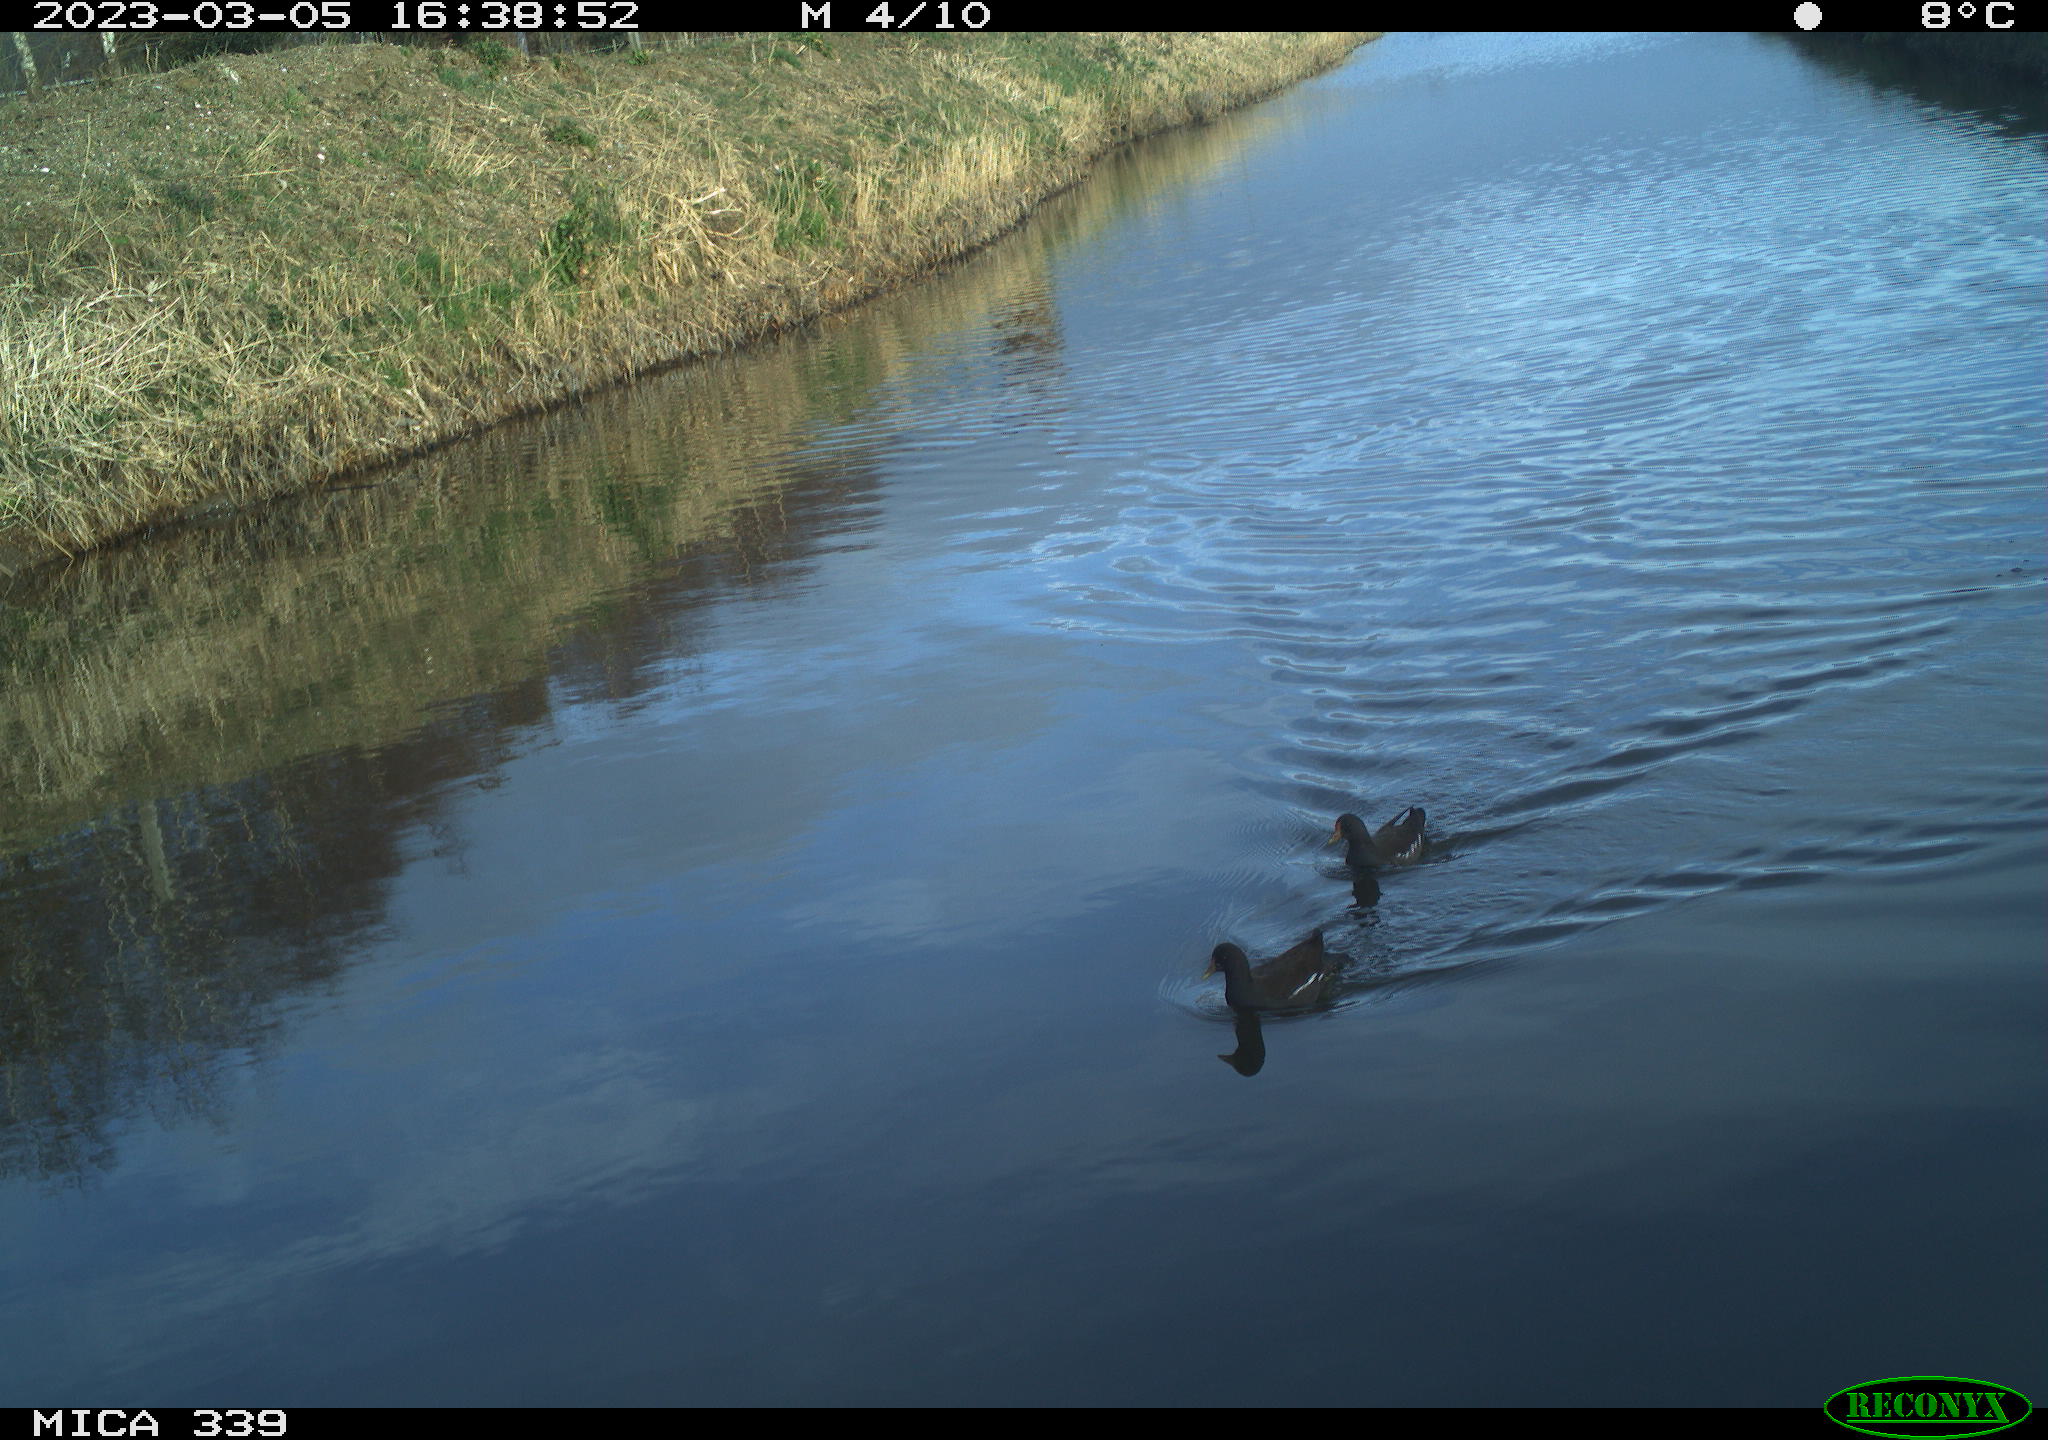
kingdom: Animalia
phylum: Chordata
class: Aves
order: Gruiformes
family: Rallidae
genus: Gallinula
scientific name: Gallinula chloropus
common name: Common moorhen
